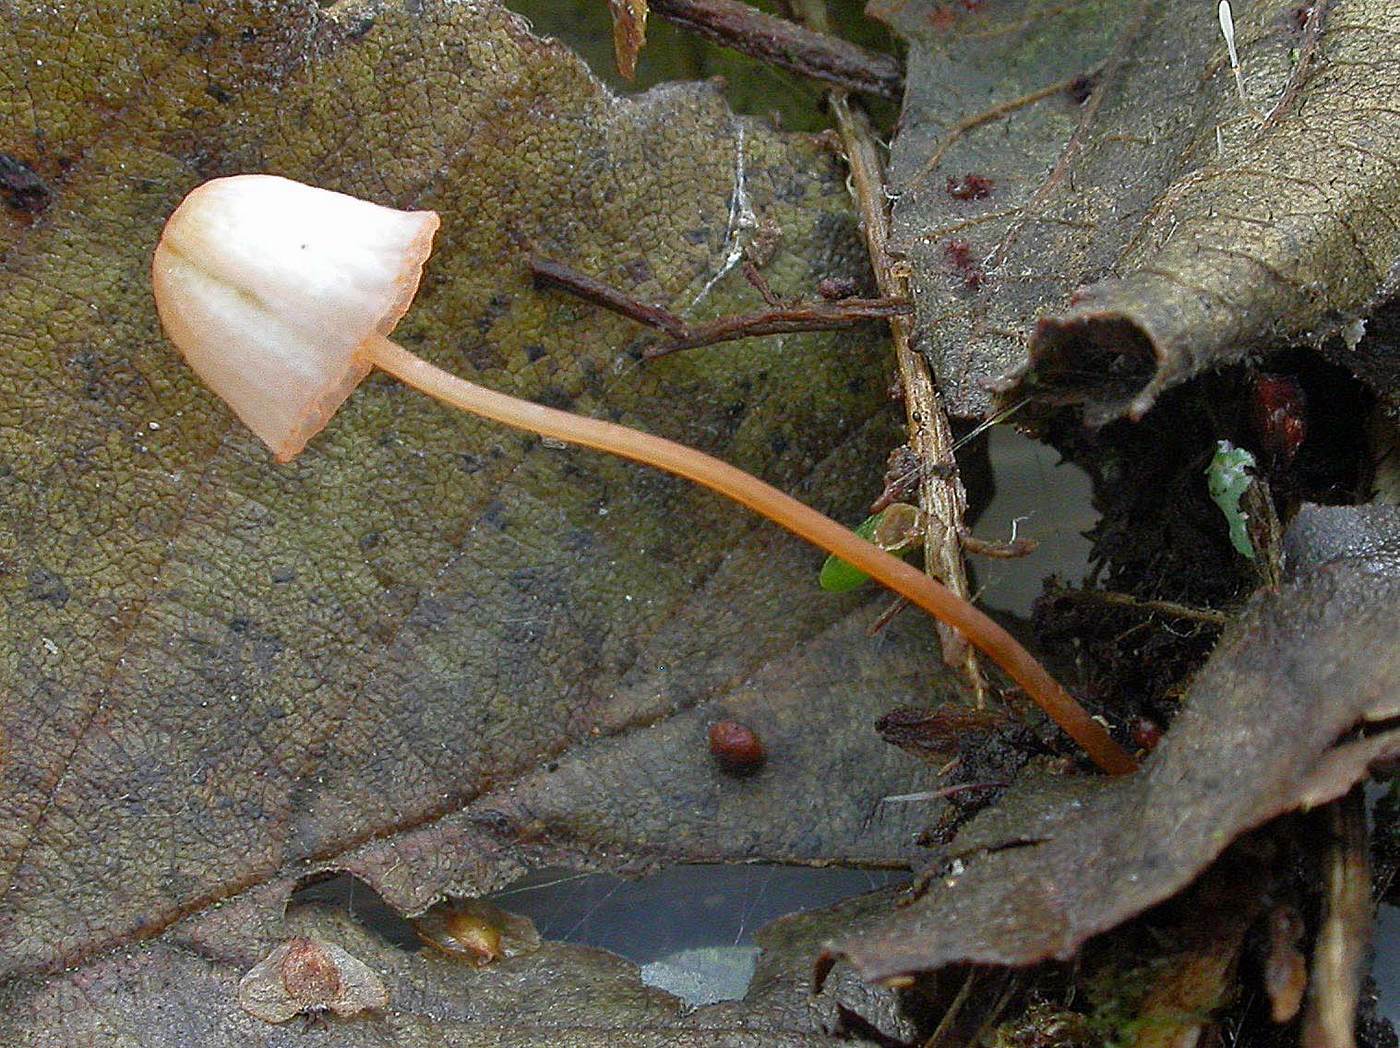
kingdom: Fungi
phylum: Basidiomycota
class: Agaricomycetes
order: Agaricales
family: Mycenaceae
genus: Mycena
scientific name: Mycena pterigena
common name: bregne-huesvamp
